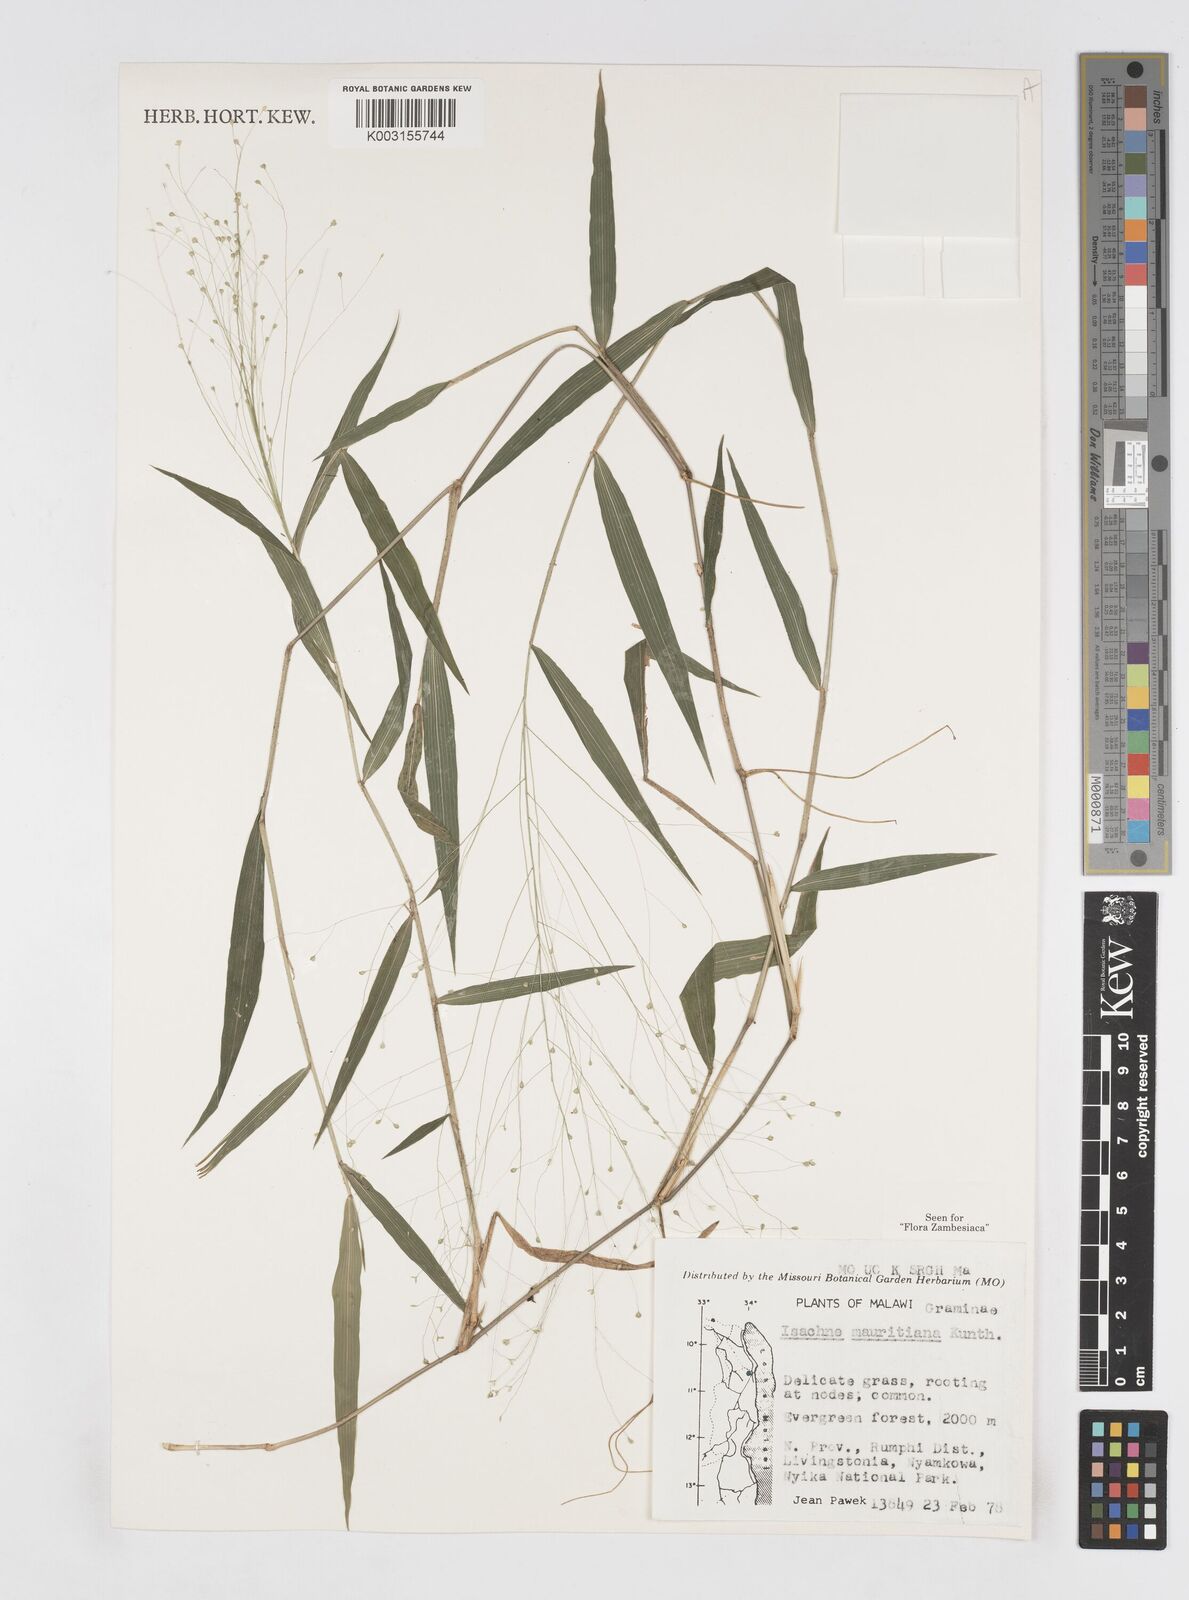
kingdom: Plantae
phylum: Tracheophyta
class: Liliopsida
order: Poales
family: Poaceae
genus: Isachne
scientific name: Isachne mauritiana
